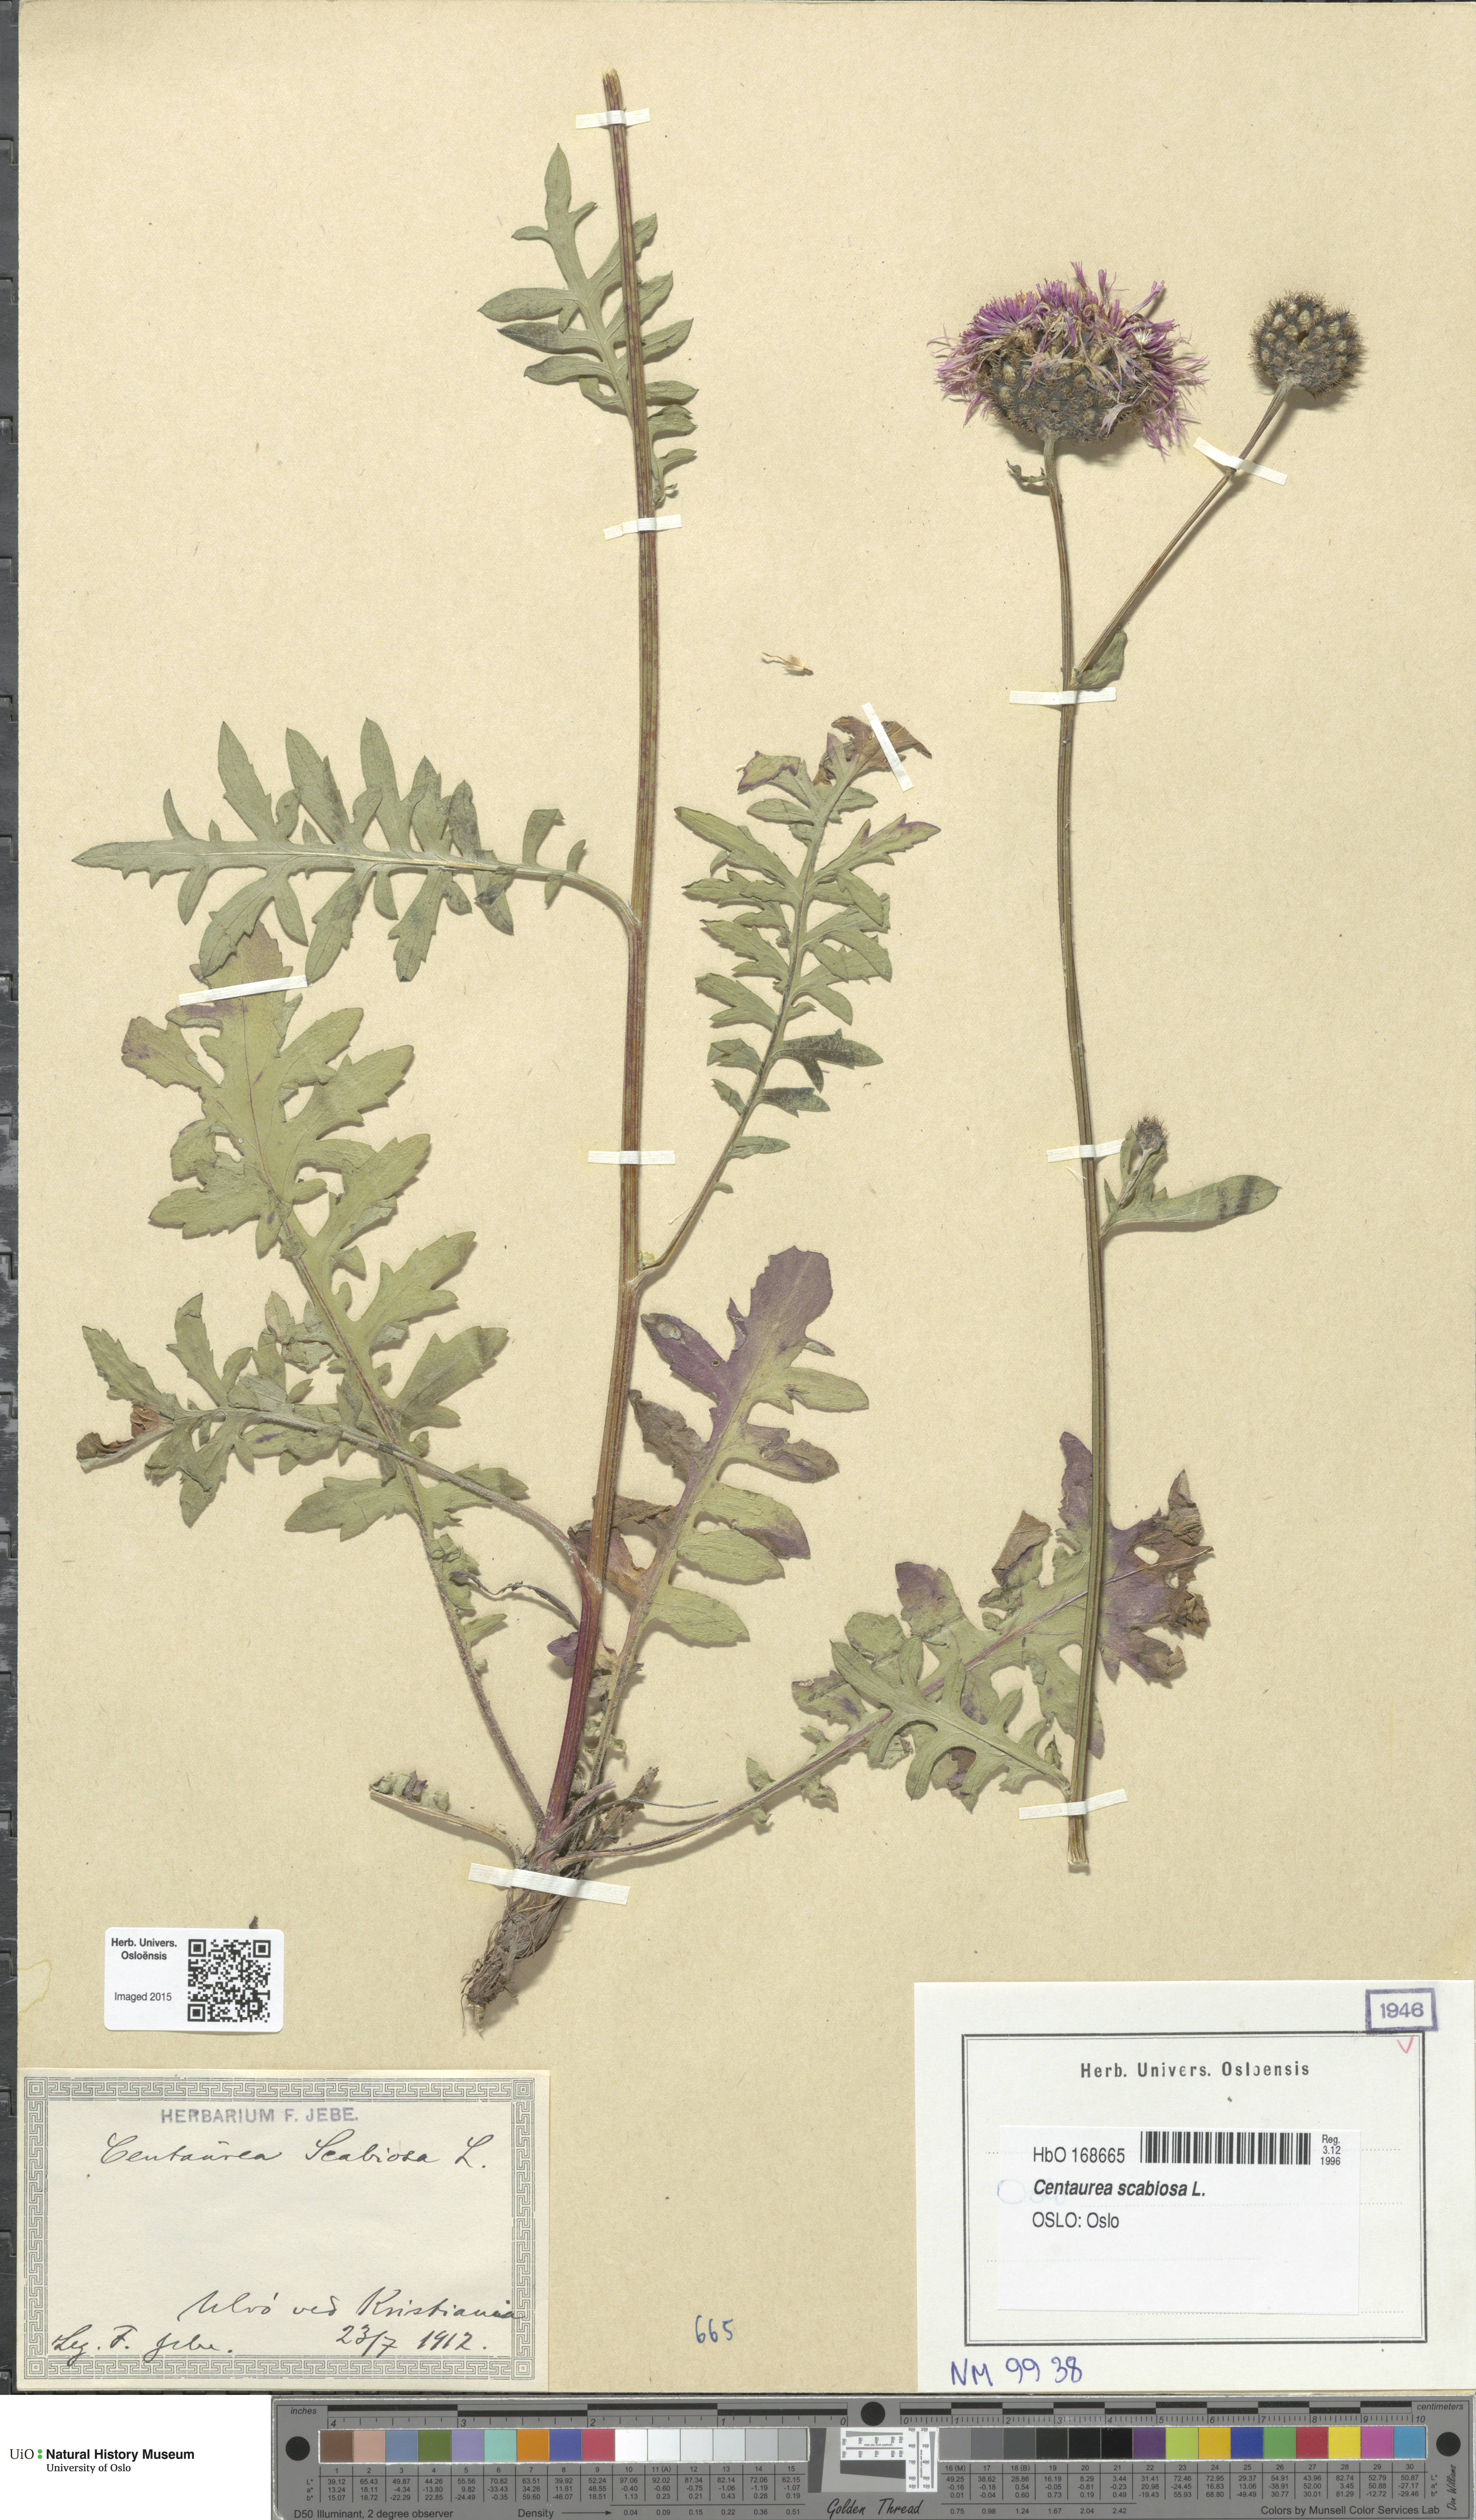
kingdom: Plantae
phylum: Tracheophyta
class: Magnoliopsida
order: Asterales
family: Asteraceae
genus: Centaurea
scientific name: Centaurea scabiosa
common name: Greater knapweed
